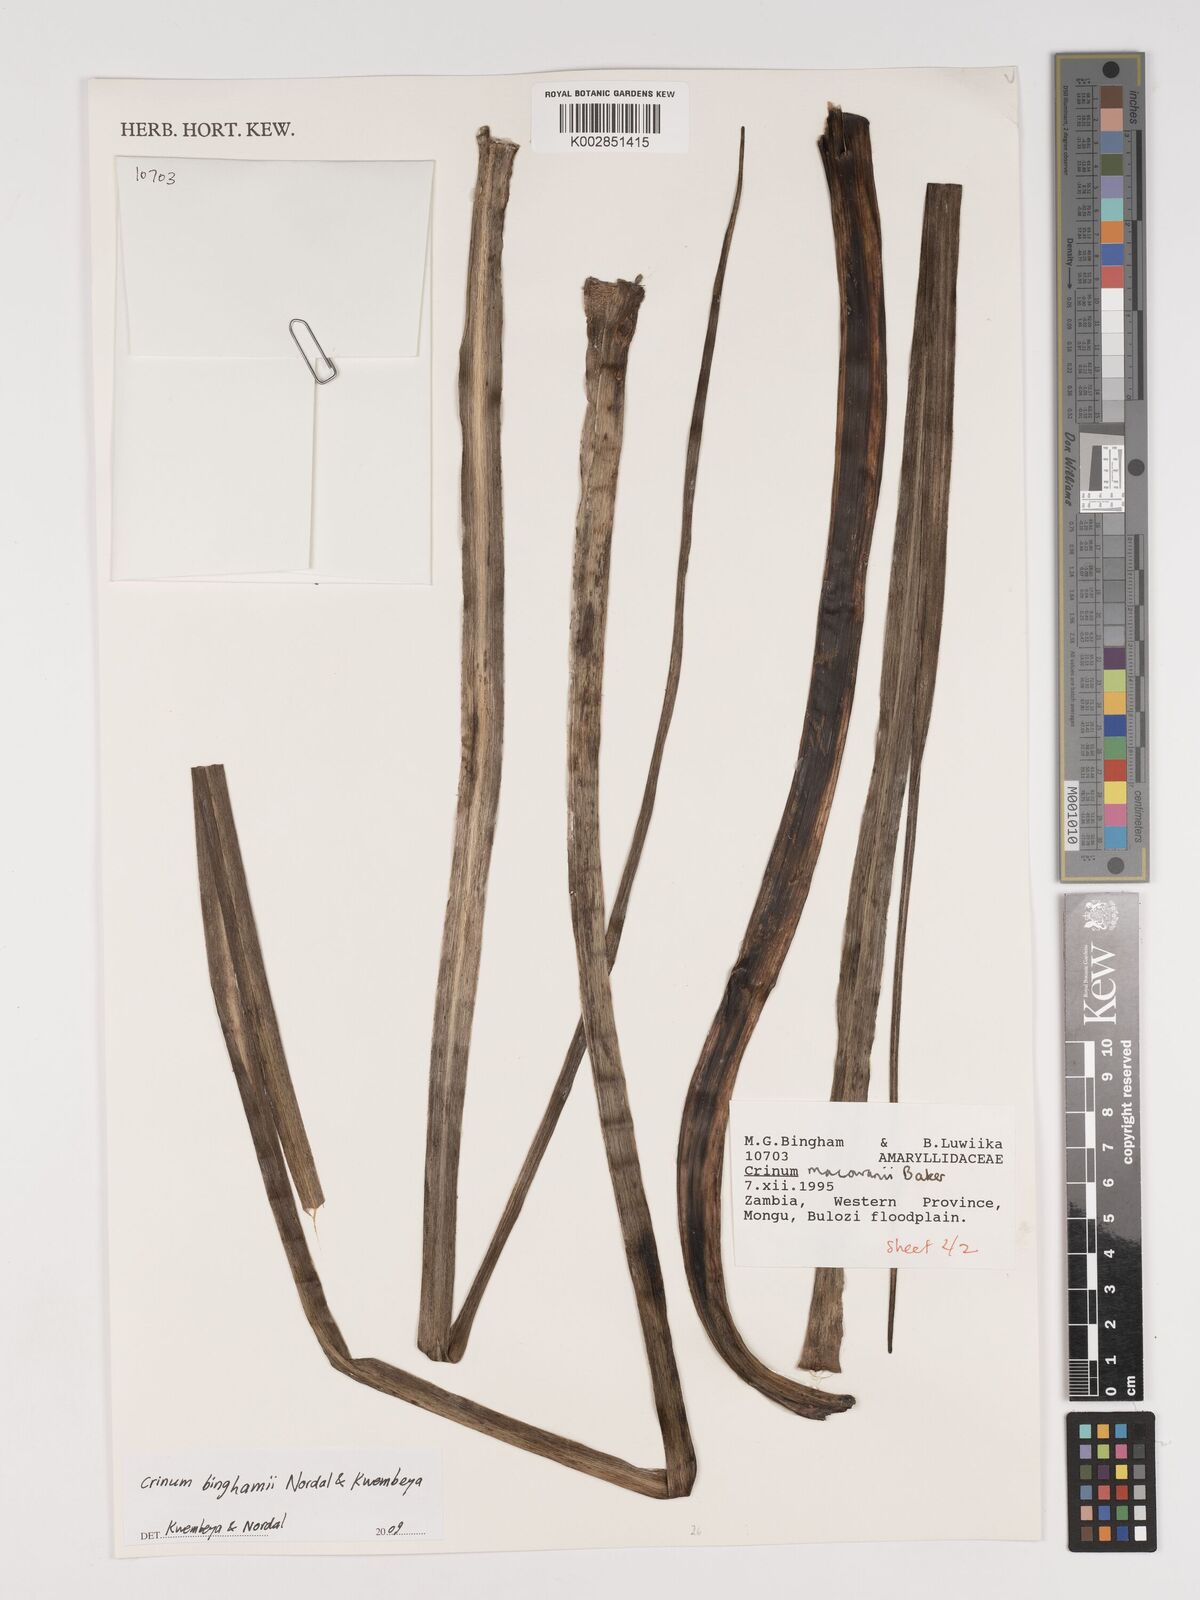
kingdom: Plantae
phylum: Tracheophyta
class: Liliopsida
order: Asparagales
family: Amaryllidaceae
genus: Crinum
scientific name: Crinum binghamii
